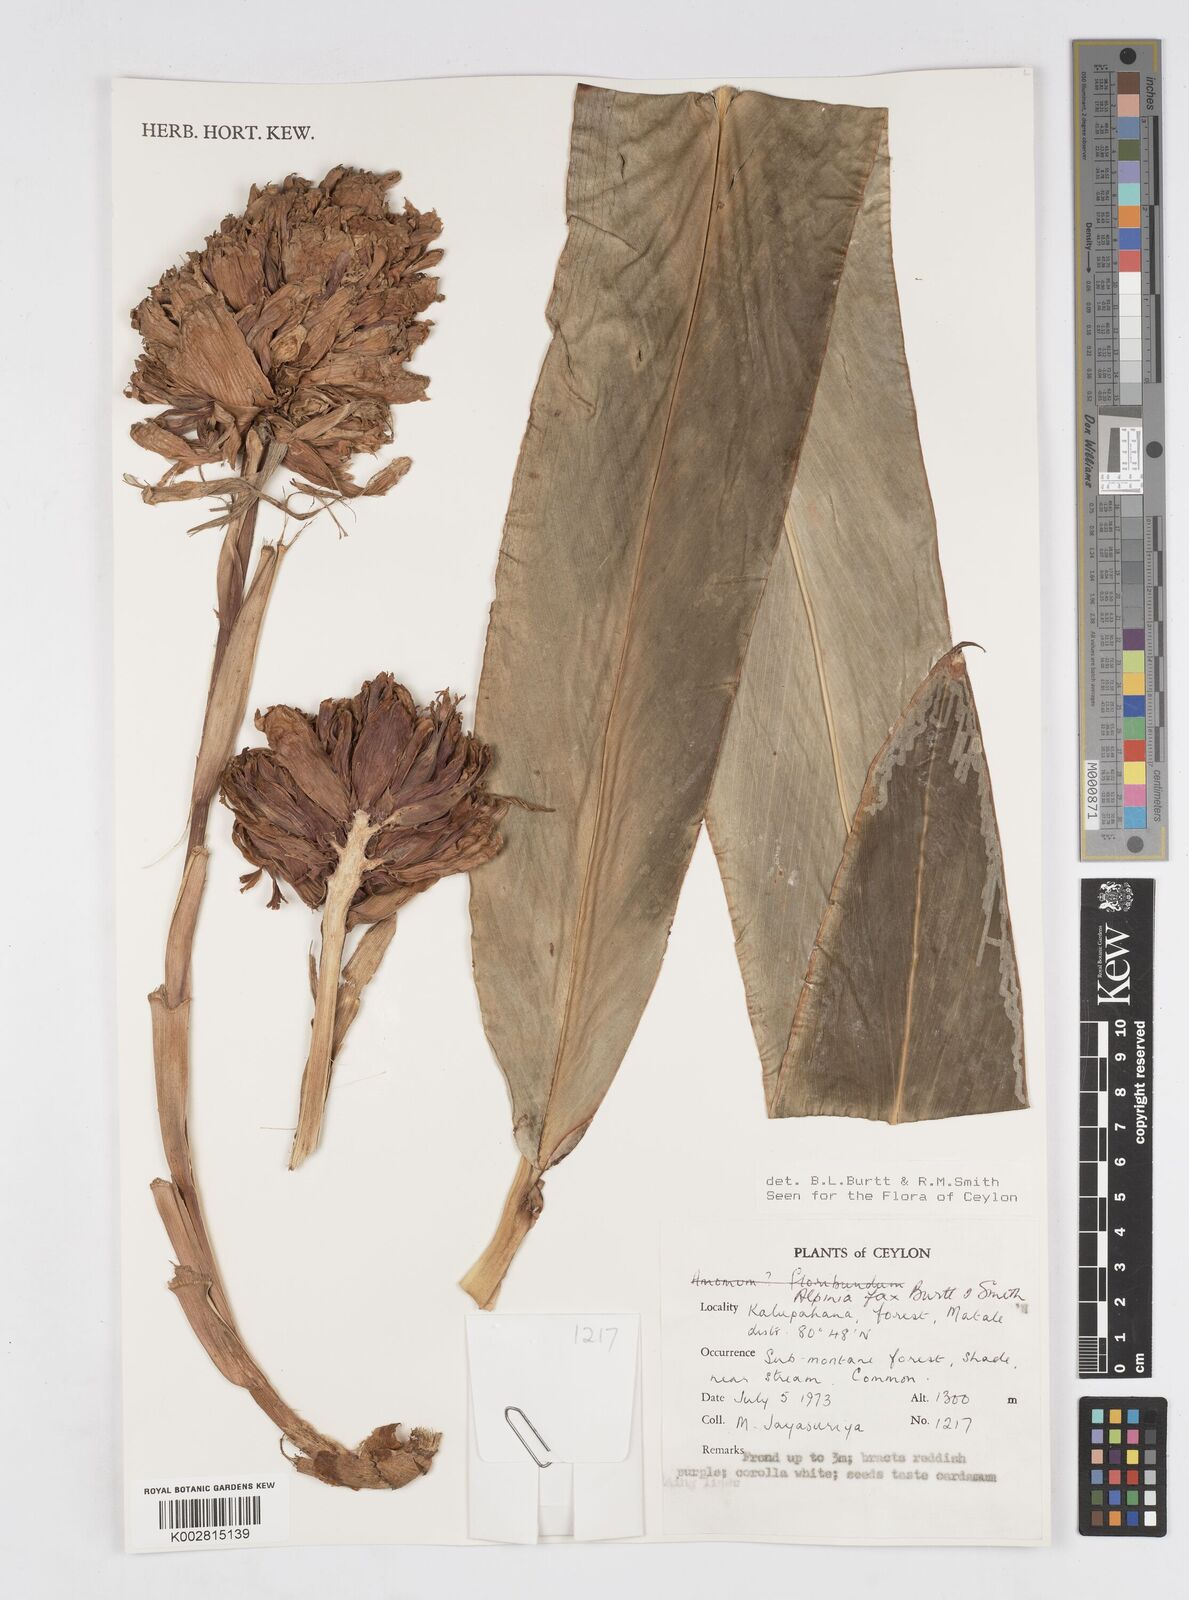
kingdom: Plantae
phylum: Tracheophyta
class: Liliopsida
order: Zingiberales
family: Zingiberaceae
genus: Alpinia
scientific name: Alpinia fax
